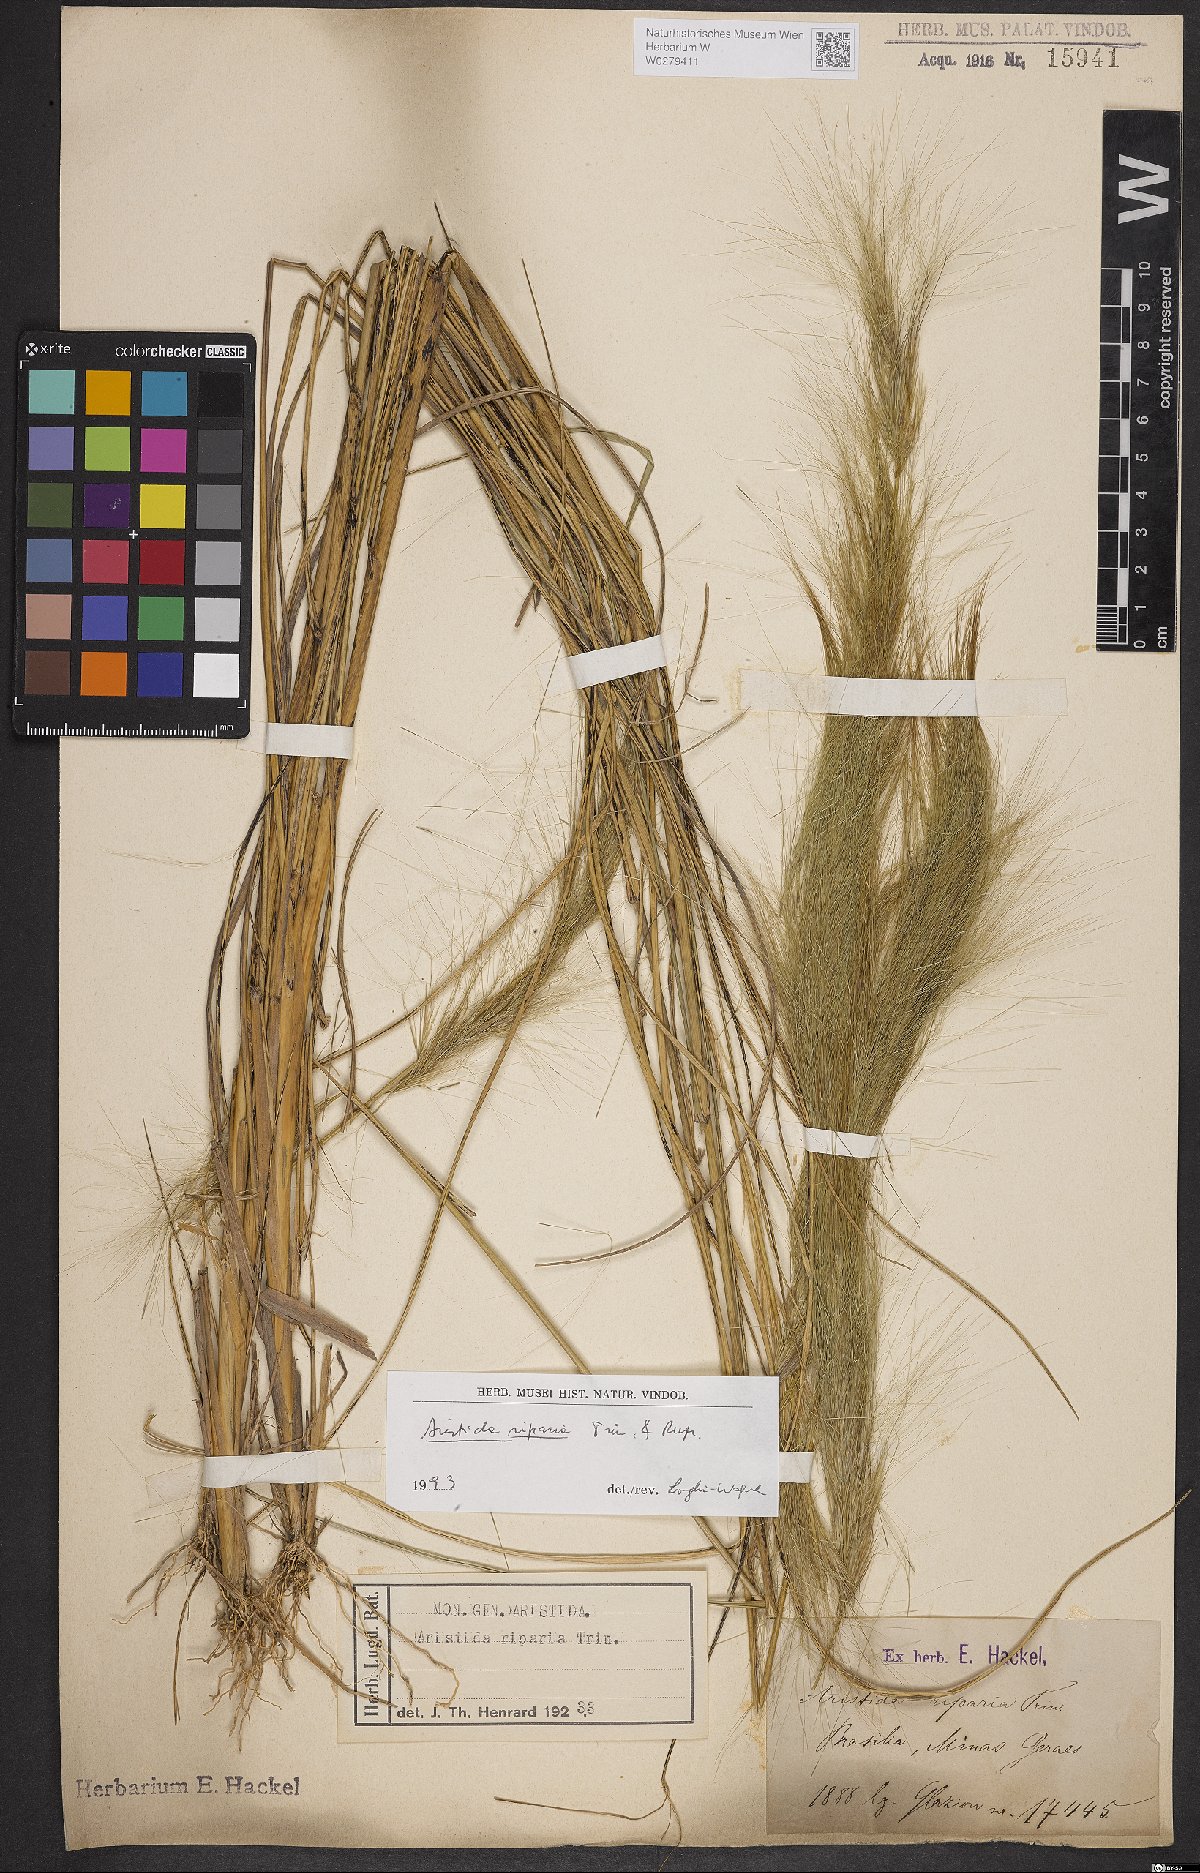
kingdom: Plantae
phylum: Tracheophyta
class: Liliopsida
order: Poales
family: Poaceae
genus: Aristida
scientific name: Aristida riparia
